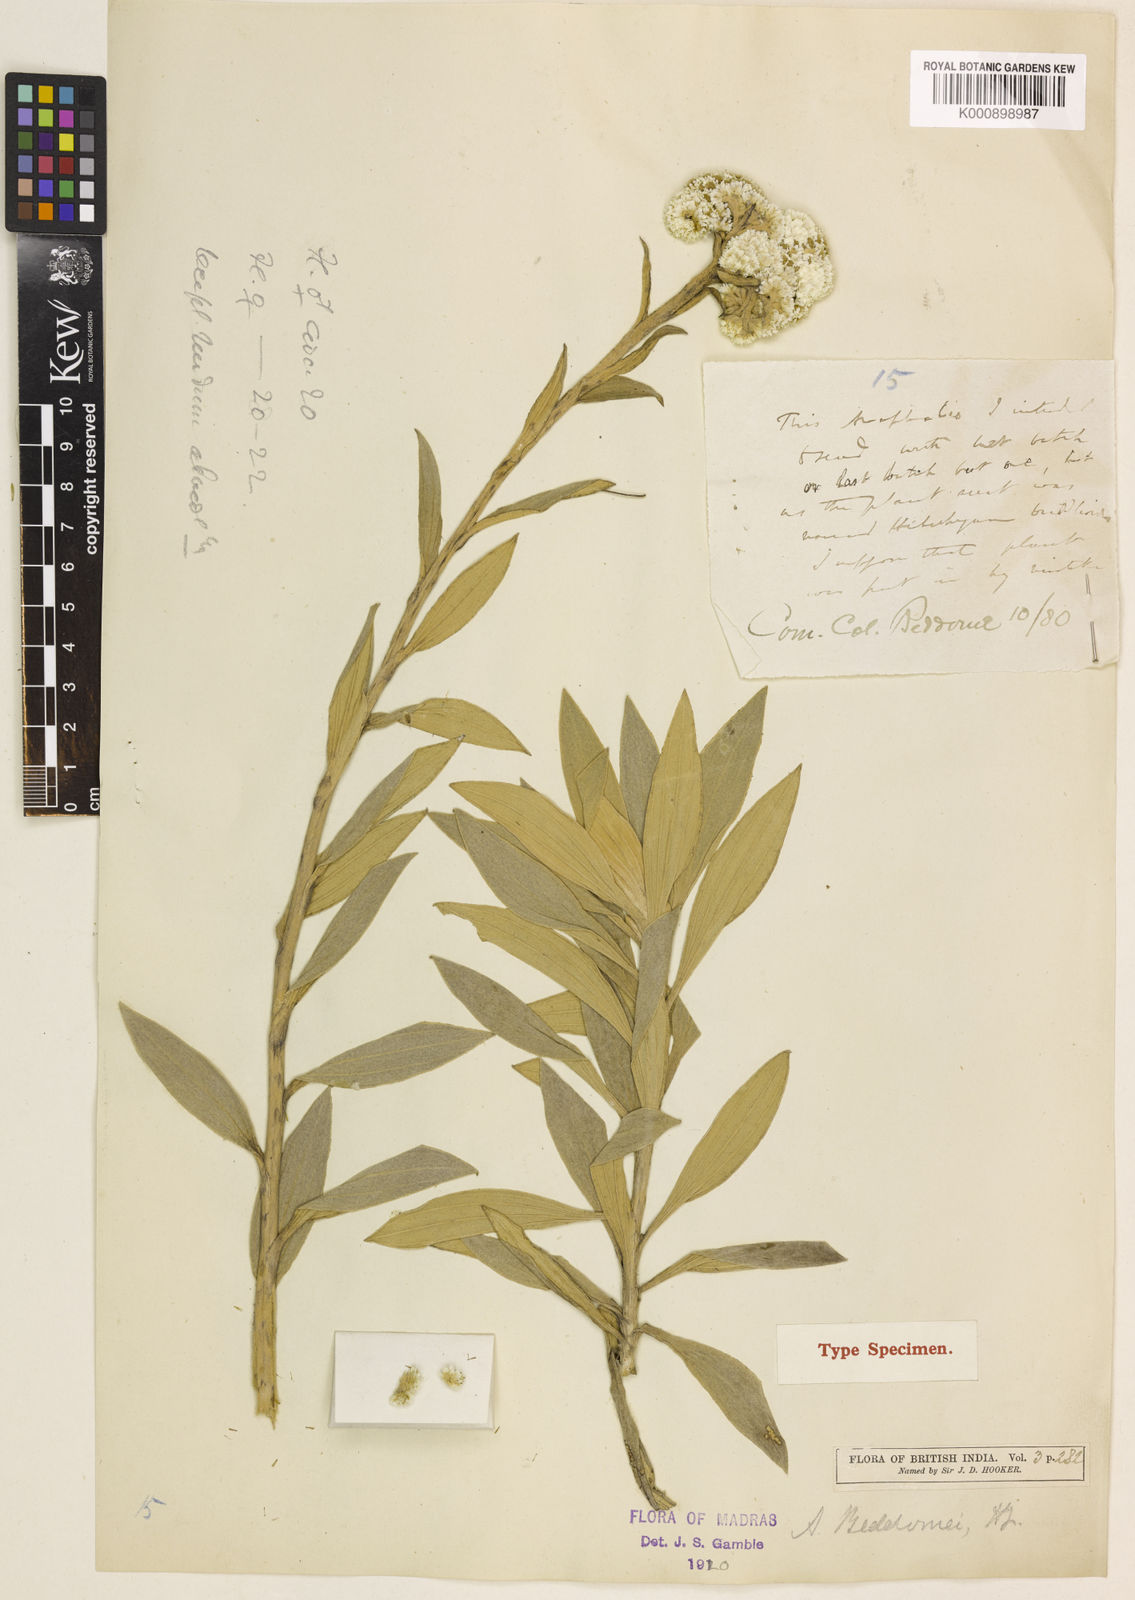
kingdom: Plantae
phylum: Tracheophyta
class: Magnoliopsida
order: Asterales
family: Asteraceae
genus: Anaphalis
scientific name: Anaphalis beddomei
